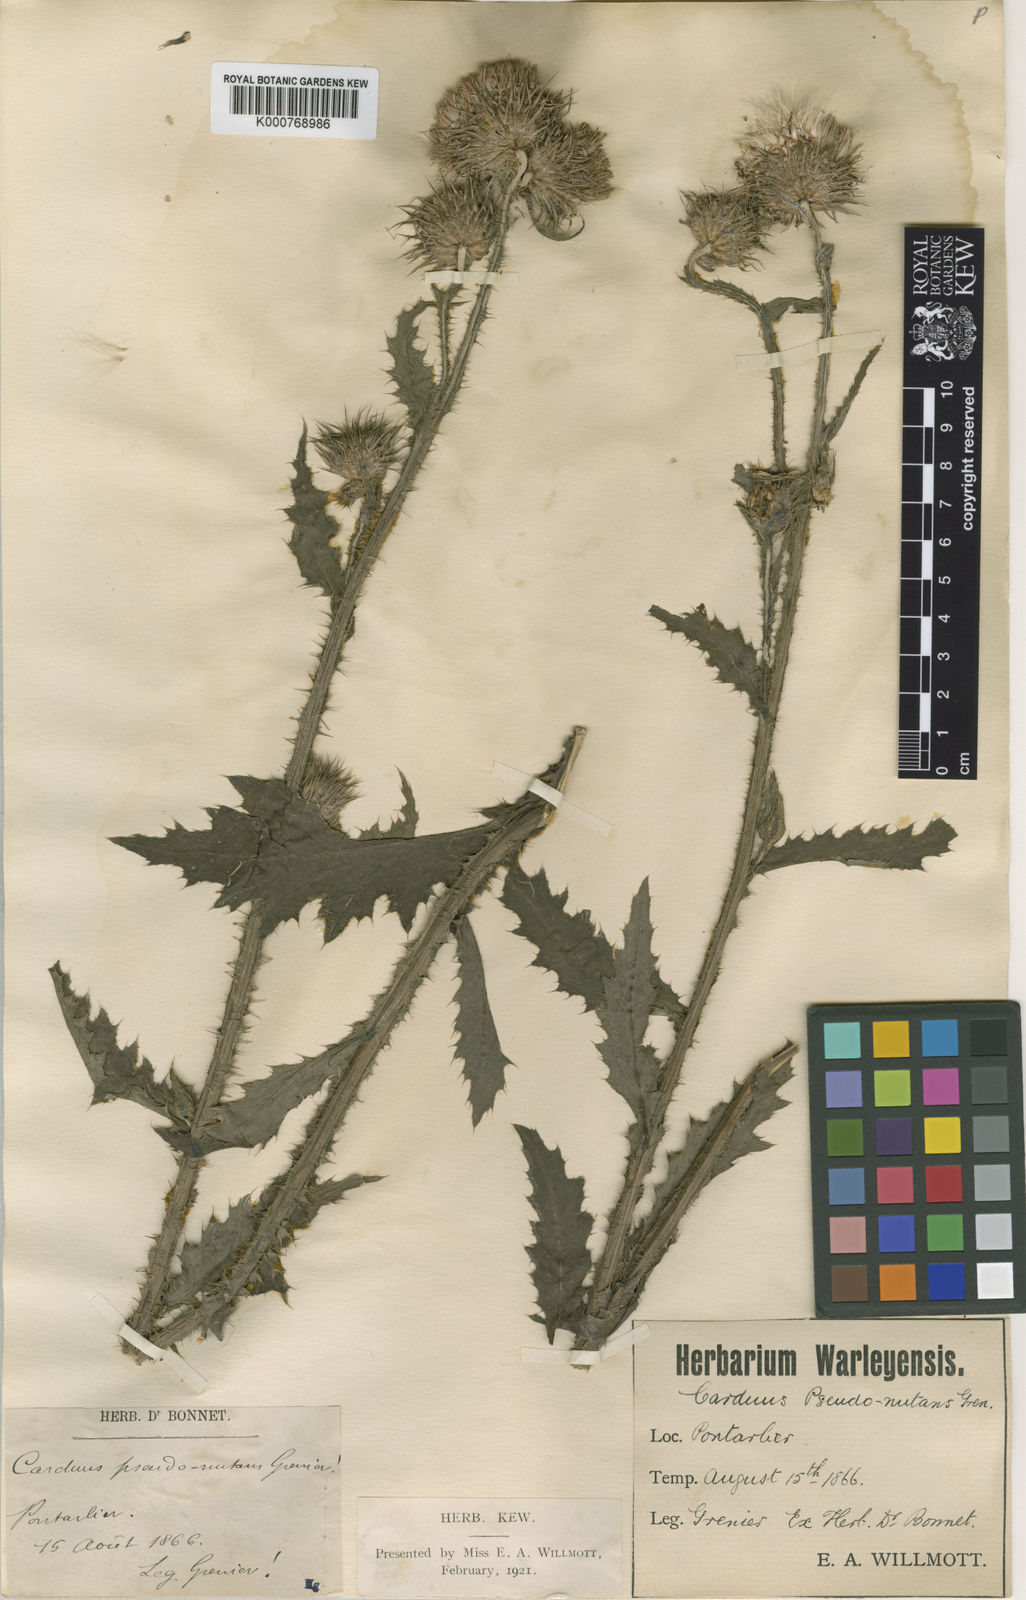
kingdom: Plantae
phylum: Tracheophyta
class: Magnoliopsida
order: Asterales
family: Asteraceae
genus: Cirsium
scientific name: Cirsium alatum
